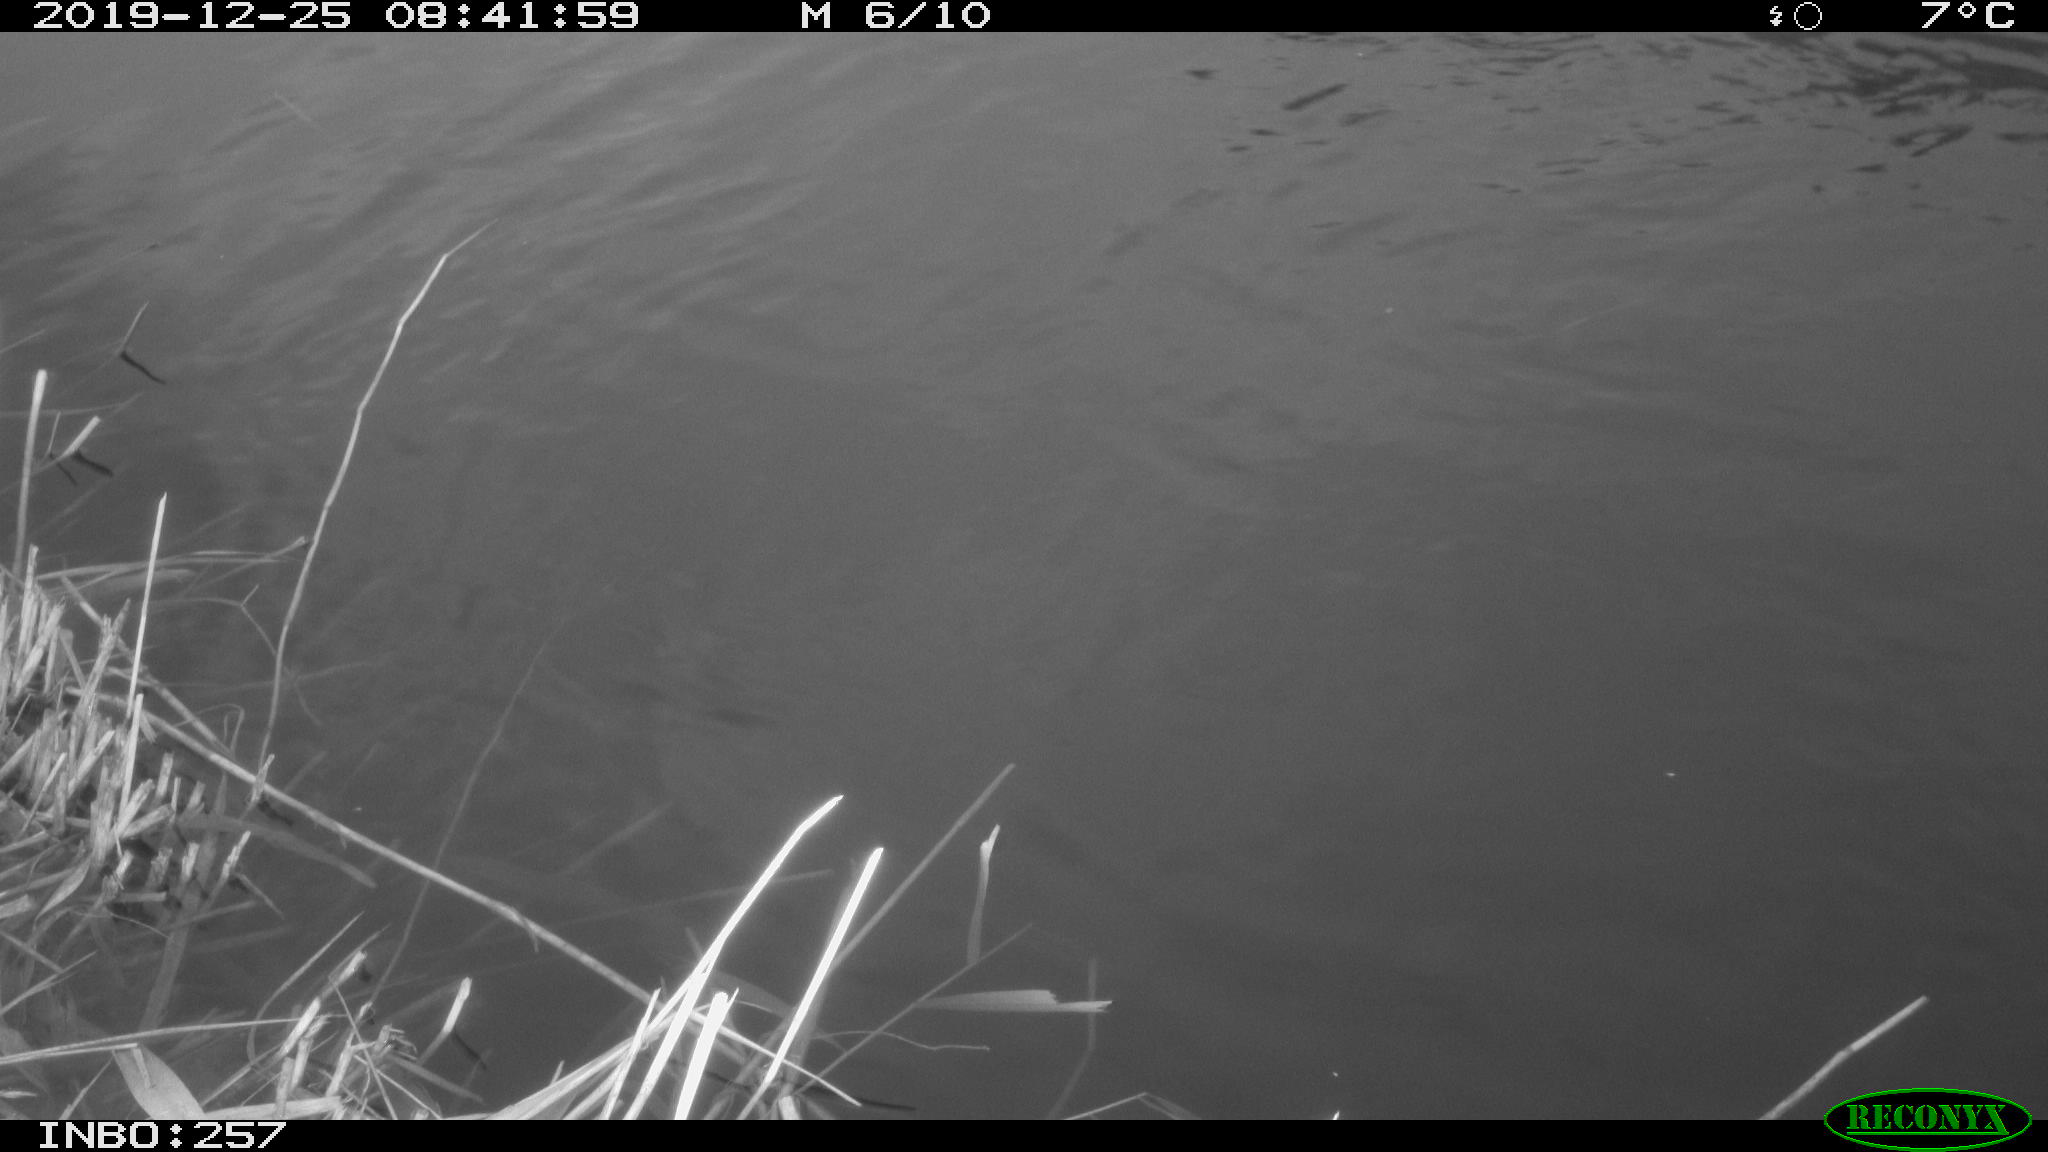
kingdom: Animalia
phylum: Chordata
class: Aves
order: Anseriformes
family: Anatidae
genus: Anas
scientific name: Anas platyrhynchos
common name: Mallard
